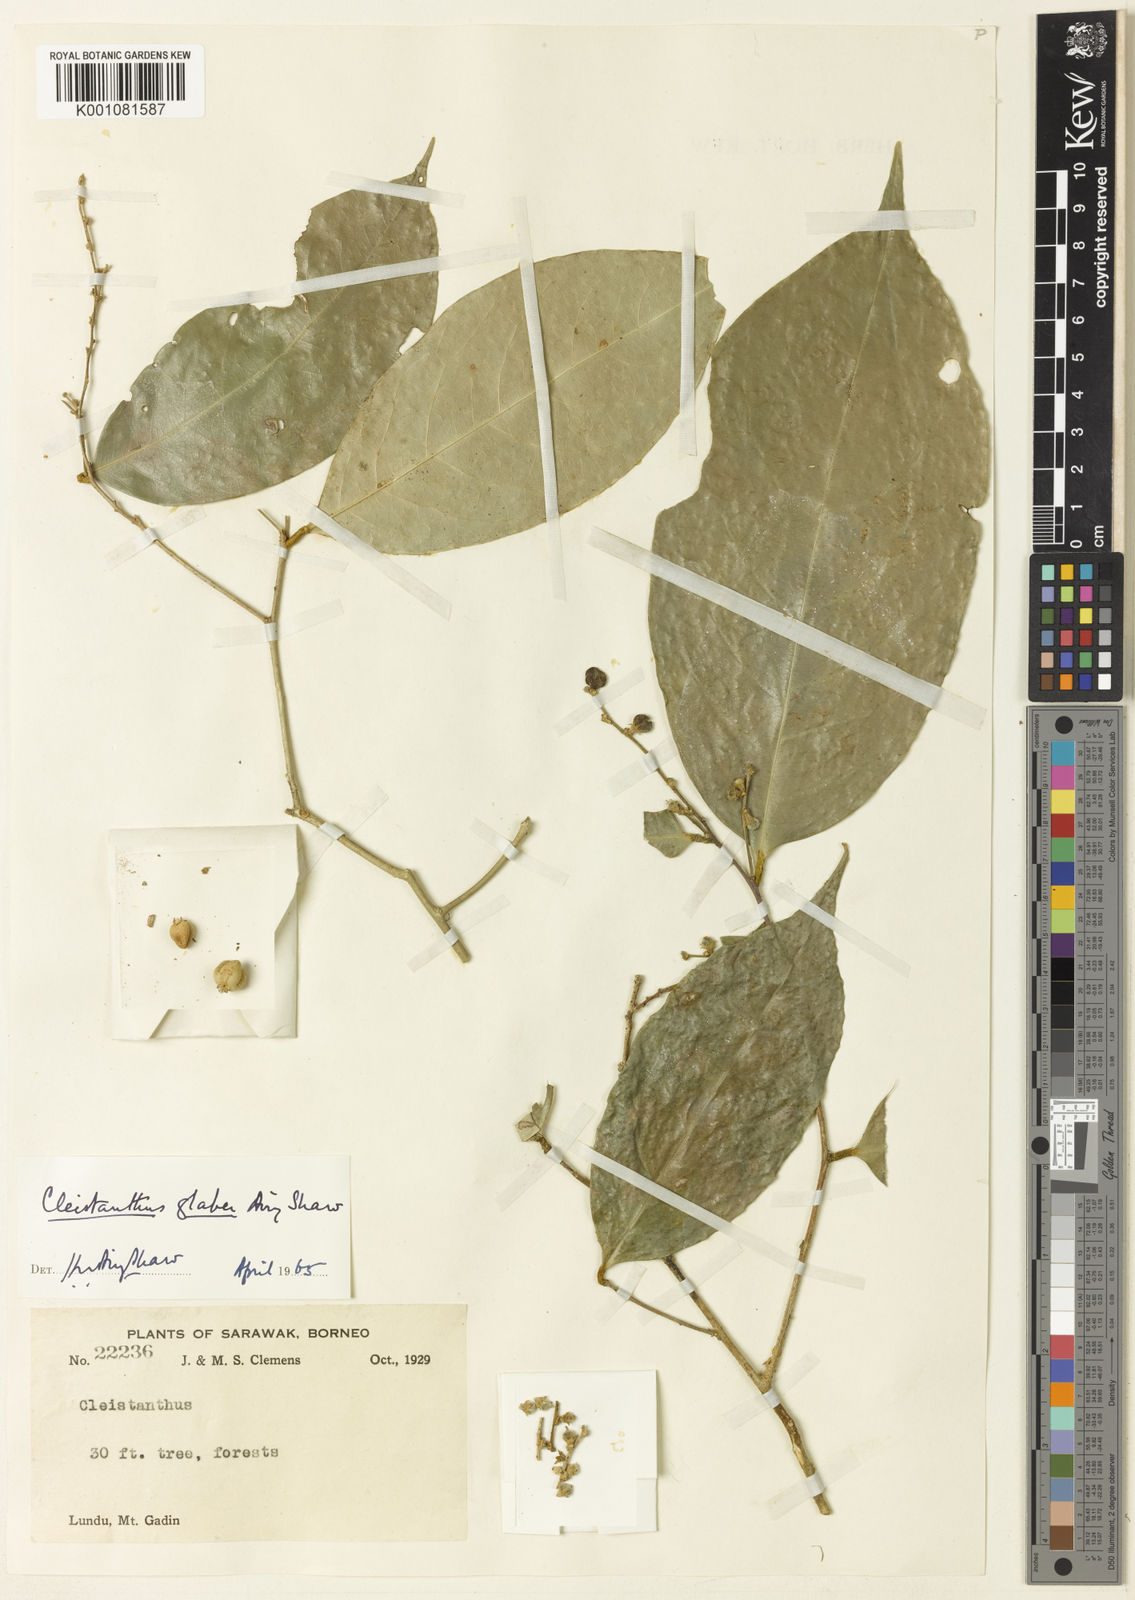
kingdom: Plantae
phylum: Tracheophyta
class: Magnoliopsida
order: Malpighiales
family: Phyllanthaceae
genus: Cleistanthus
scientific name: Cleistanthus glaber
